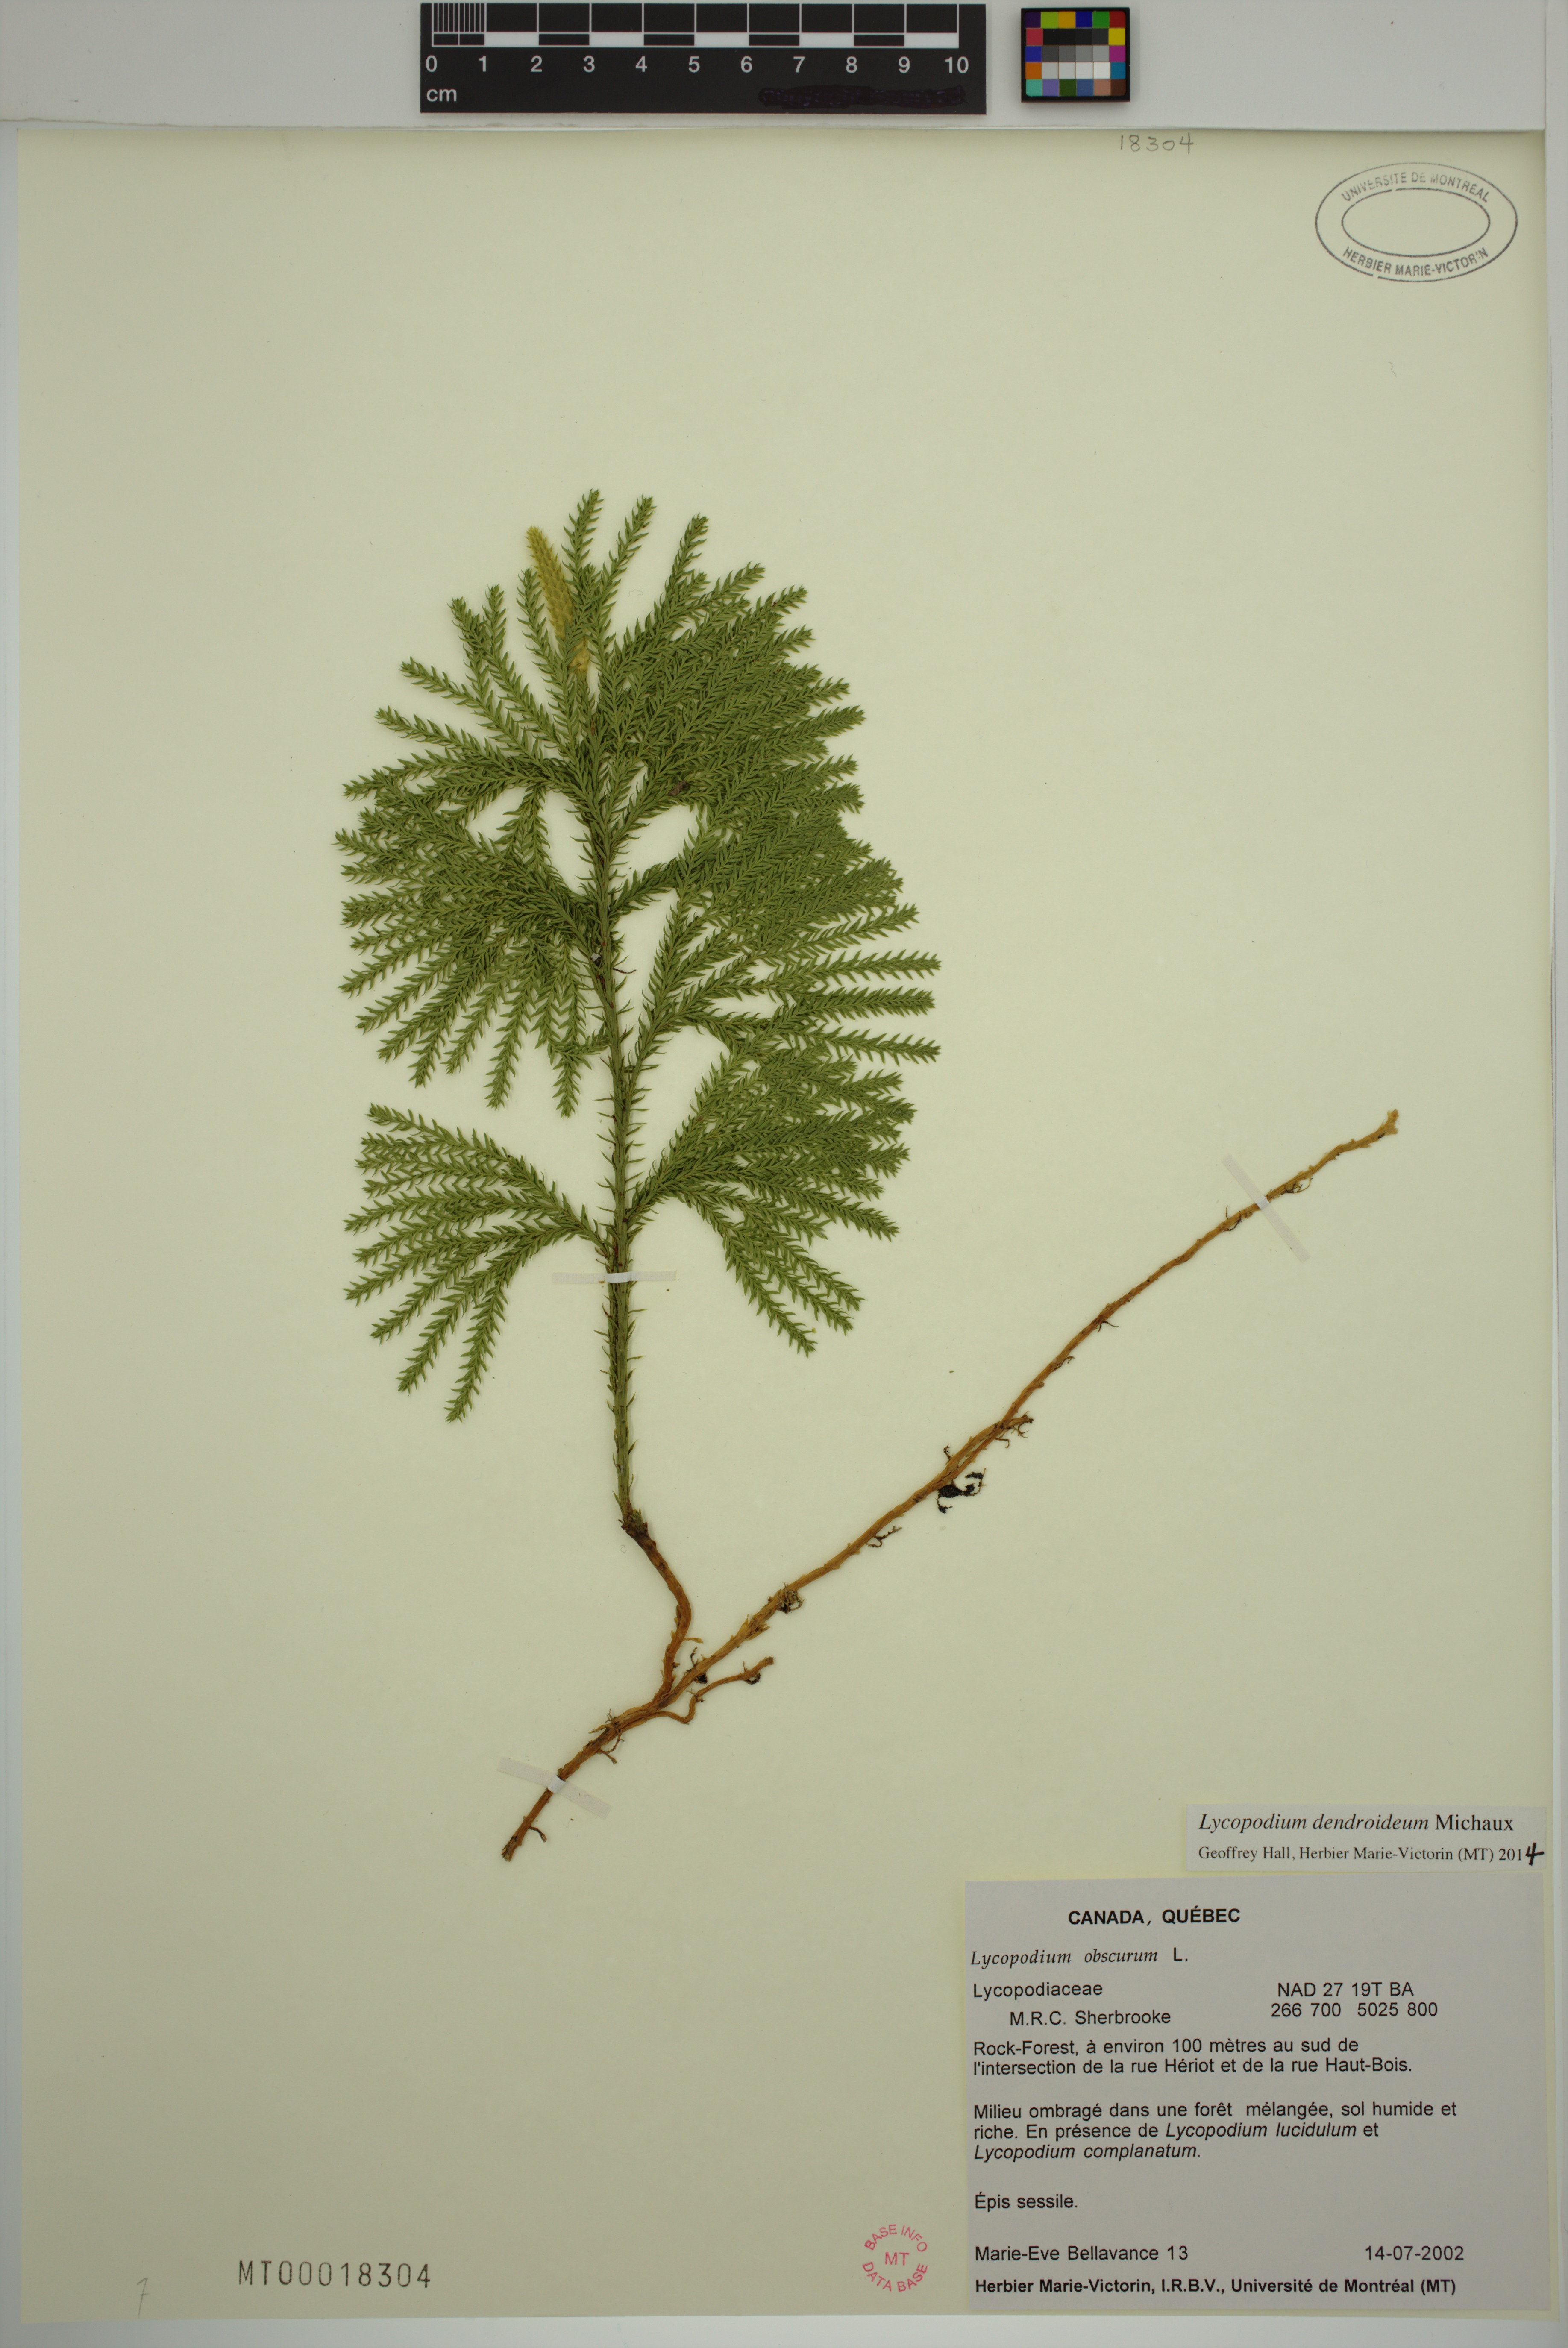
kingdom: Plantae
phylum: Tracheophyta
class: Lycopodiopsida
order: Lycopodiales
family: Lycopodiaceae
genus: Dendrolycopodium
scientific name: Dendrolycopodium dendroideum
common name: Northern tree-clubmoss
